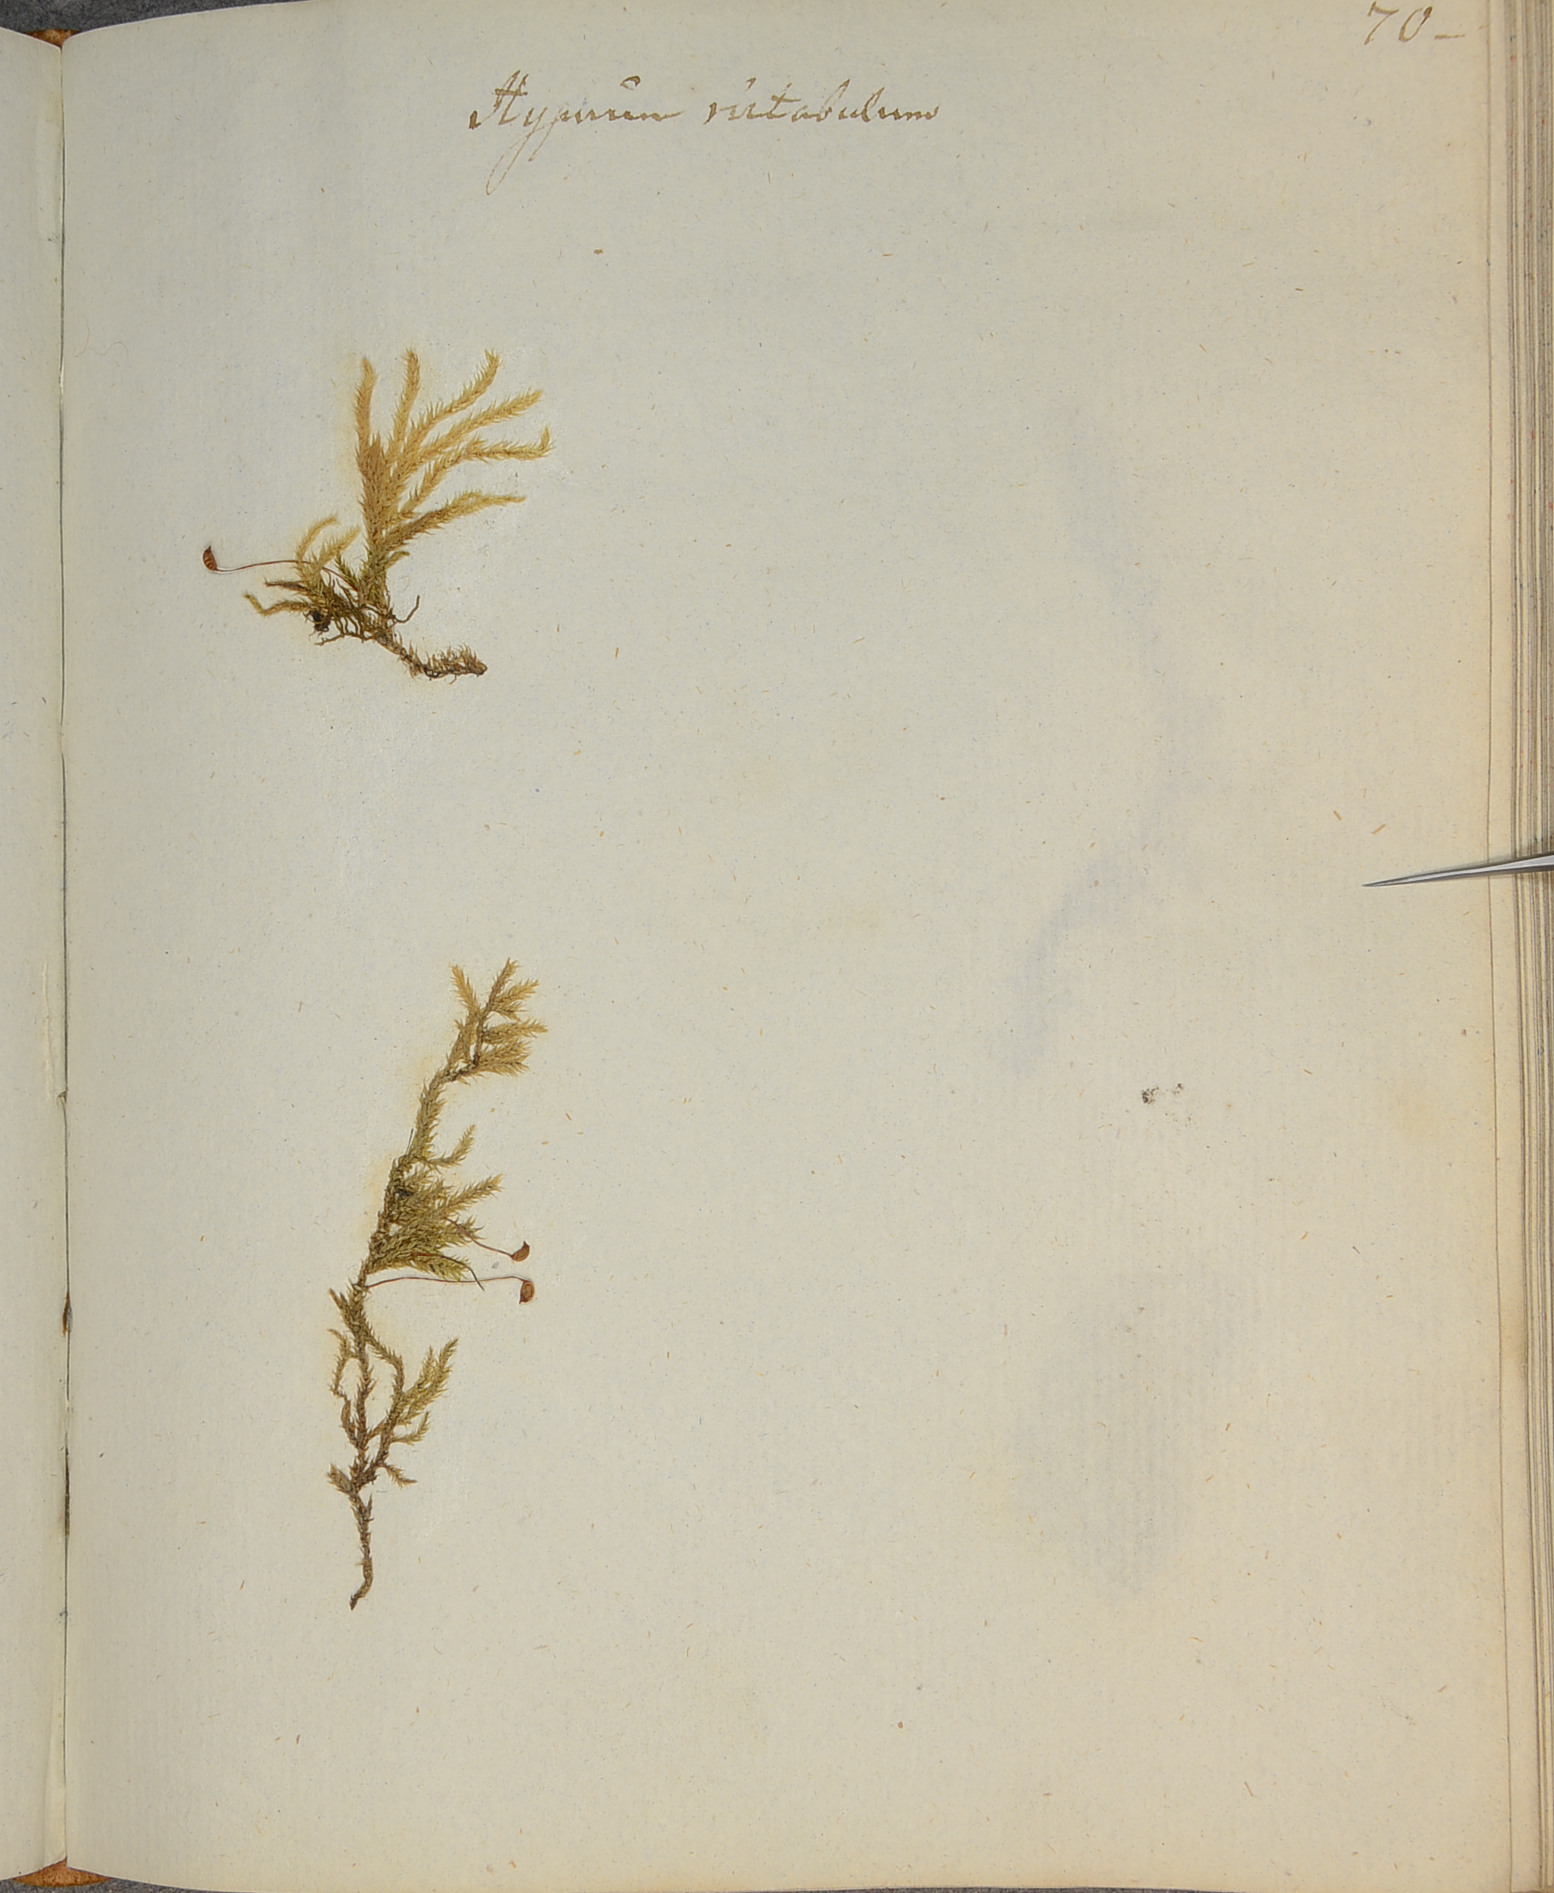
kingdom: Plantae
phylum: Bryophyta
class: Bryopsida
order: Hypnales
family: Brachytheciaceae
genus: Brachythecium
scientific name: Brachythecium salebrosum
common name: Smooth-stalk feather-moss
